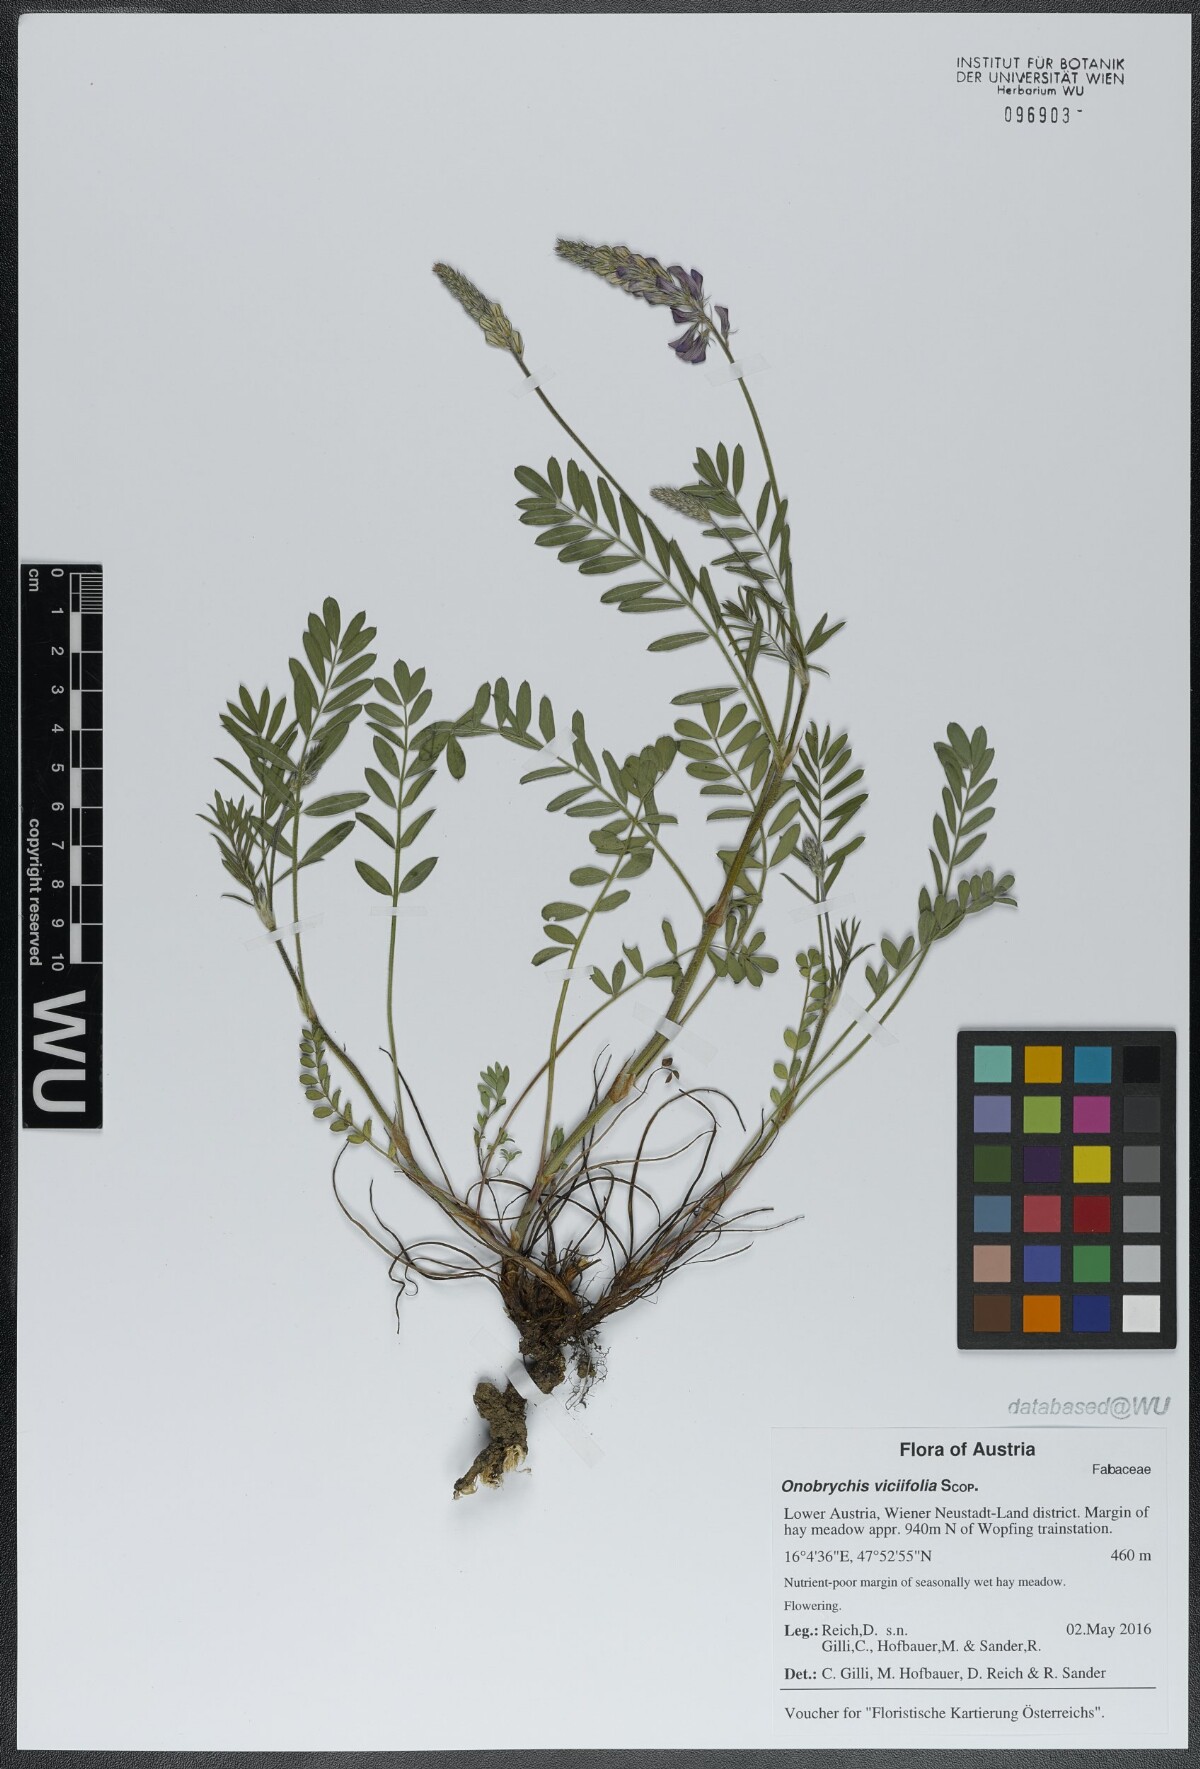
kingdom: Plantae
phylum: Tracheophyta
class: Magnoliopsida
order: Fabales
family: Fabaceae
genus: Onobrychis
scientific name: Onobrychis viciifolia
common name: Sainfoin
